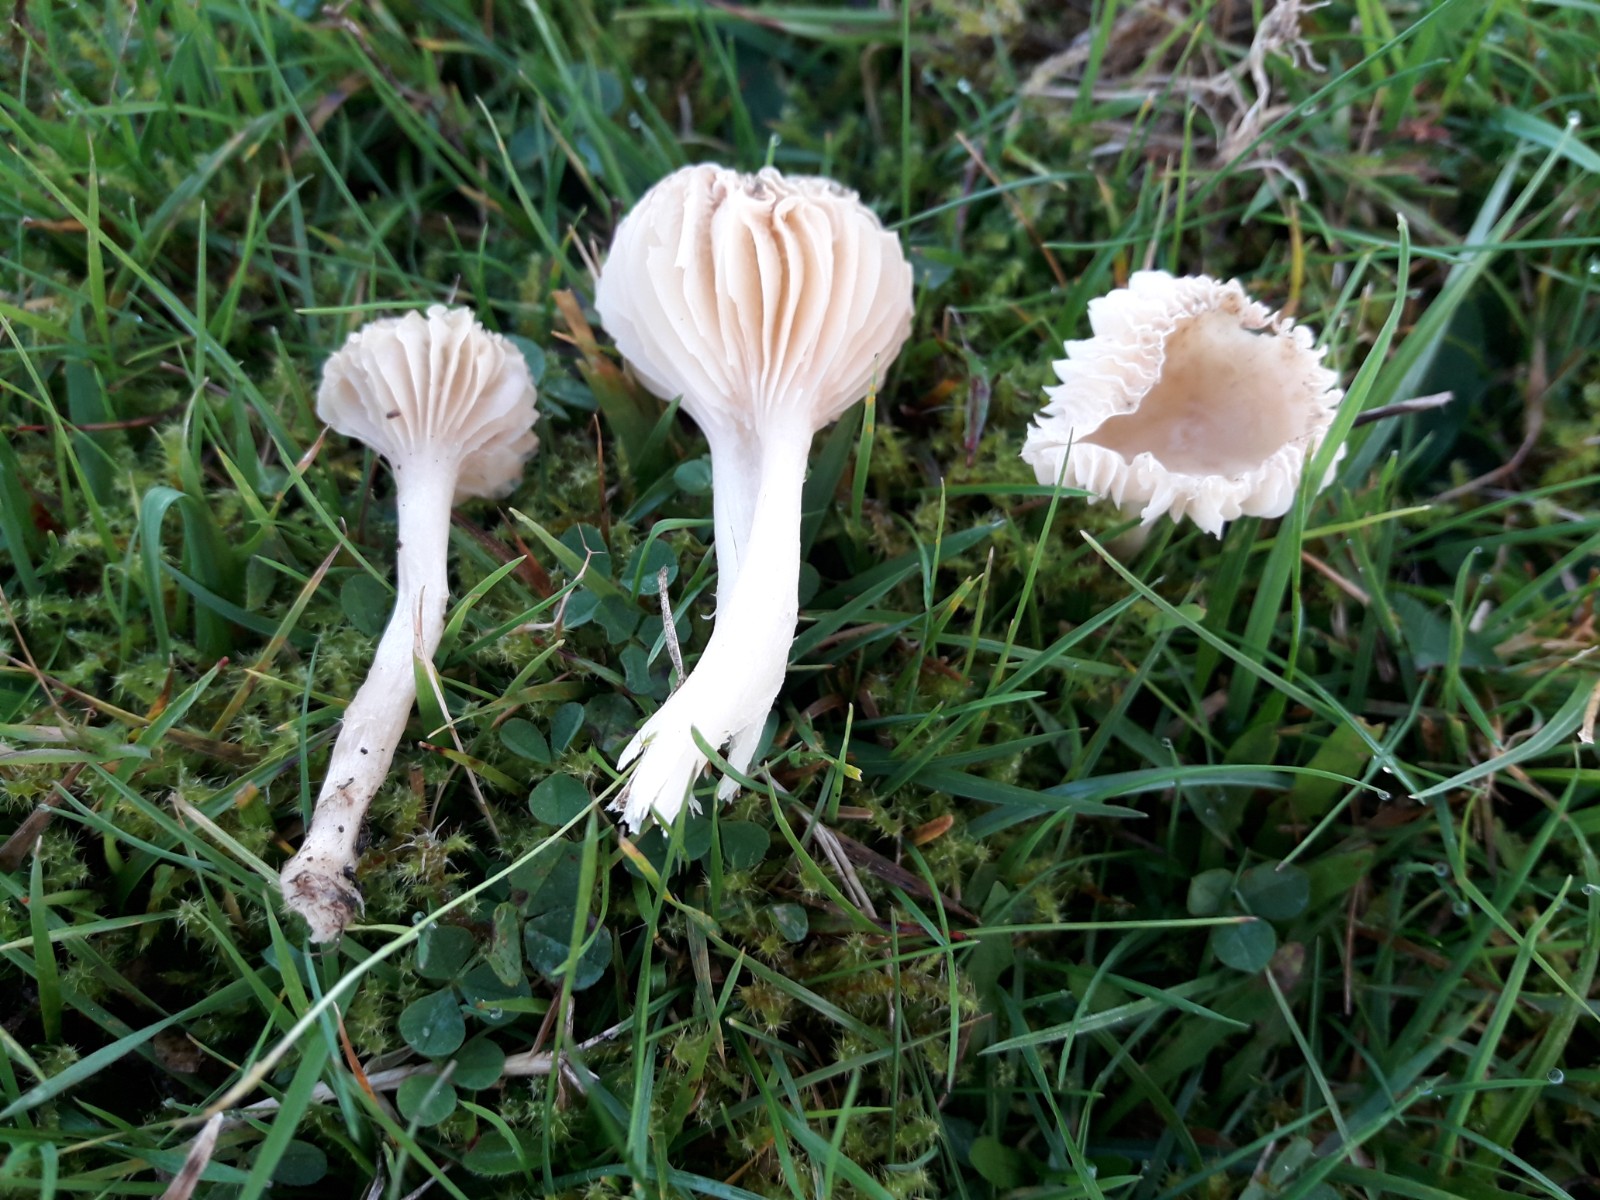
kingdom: Fungi
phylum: Basidiomycota
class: Agaricomycetes
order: Agaricales
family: Hygrophoraceae
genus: Cuphophyllus
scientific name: Cuphophyllus
